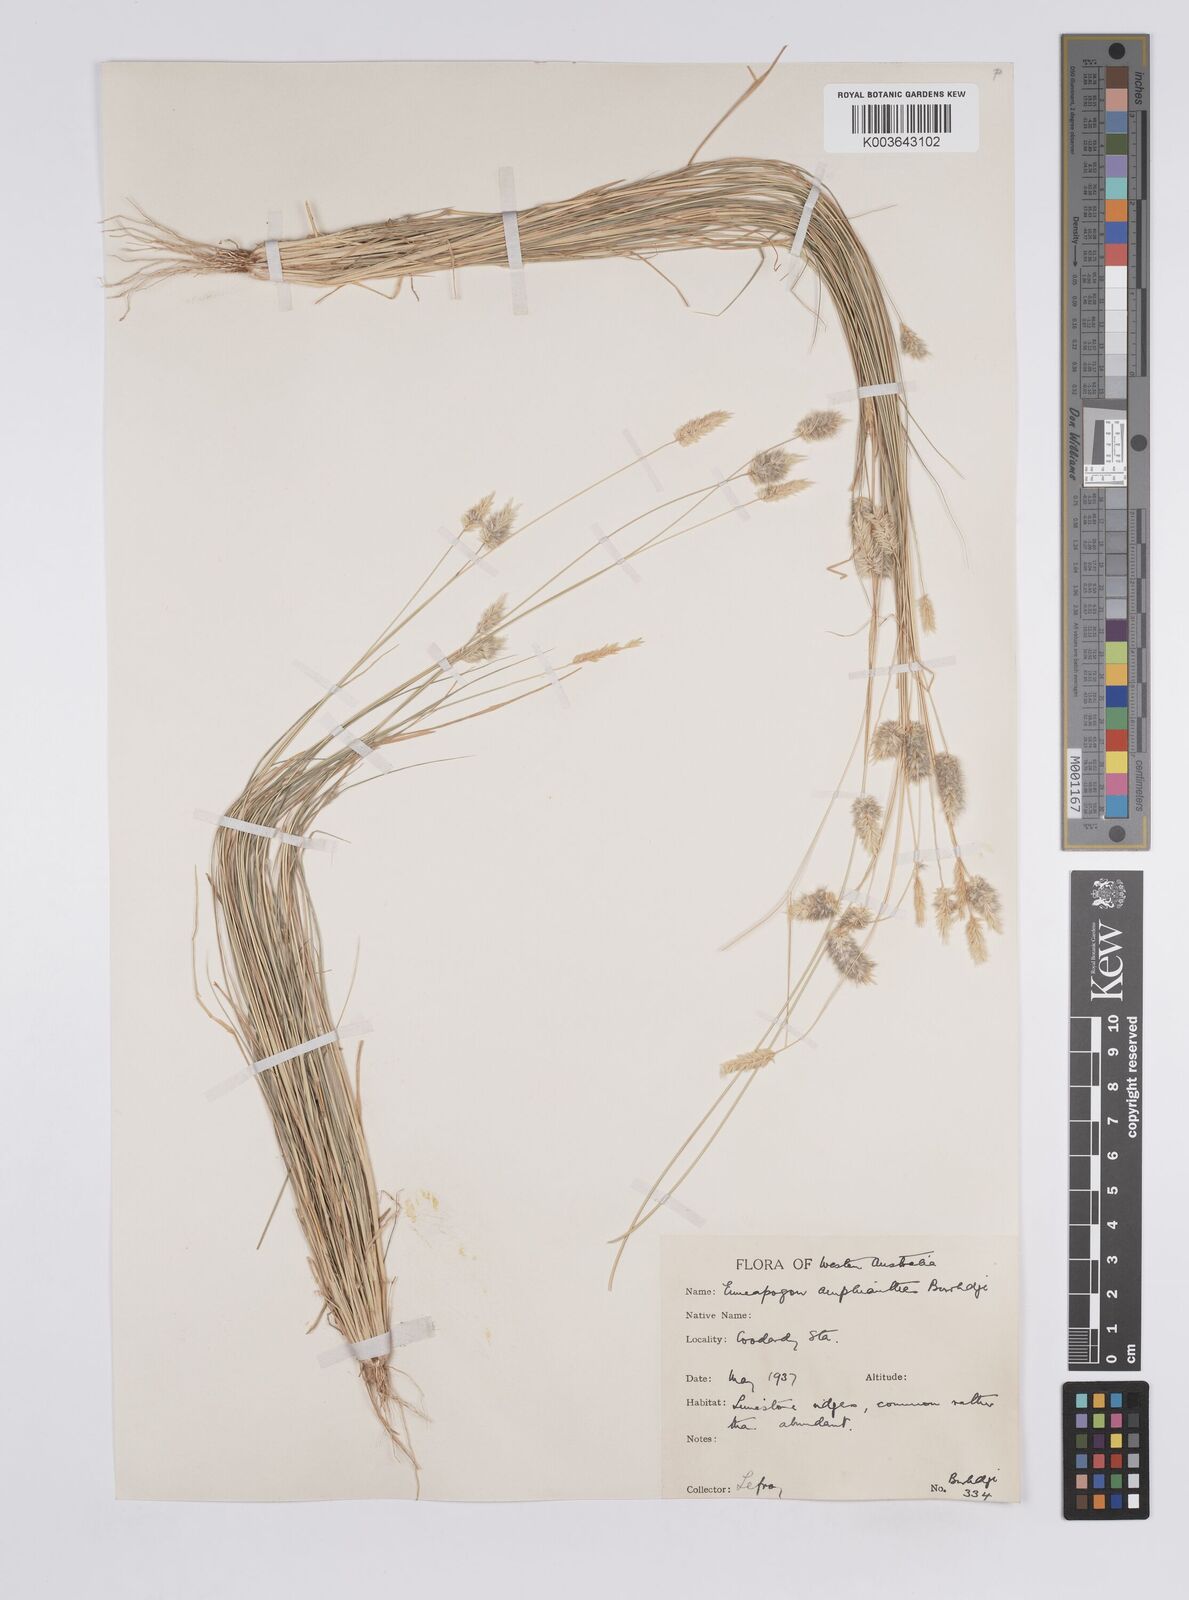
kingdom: Plantae
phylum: Tracheophyta
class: Liliopsida
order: Poales
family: Poaceae
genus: Enneapogon
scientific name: Enneapogon caerulescens
